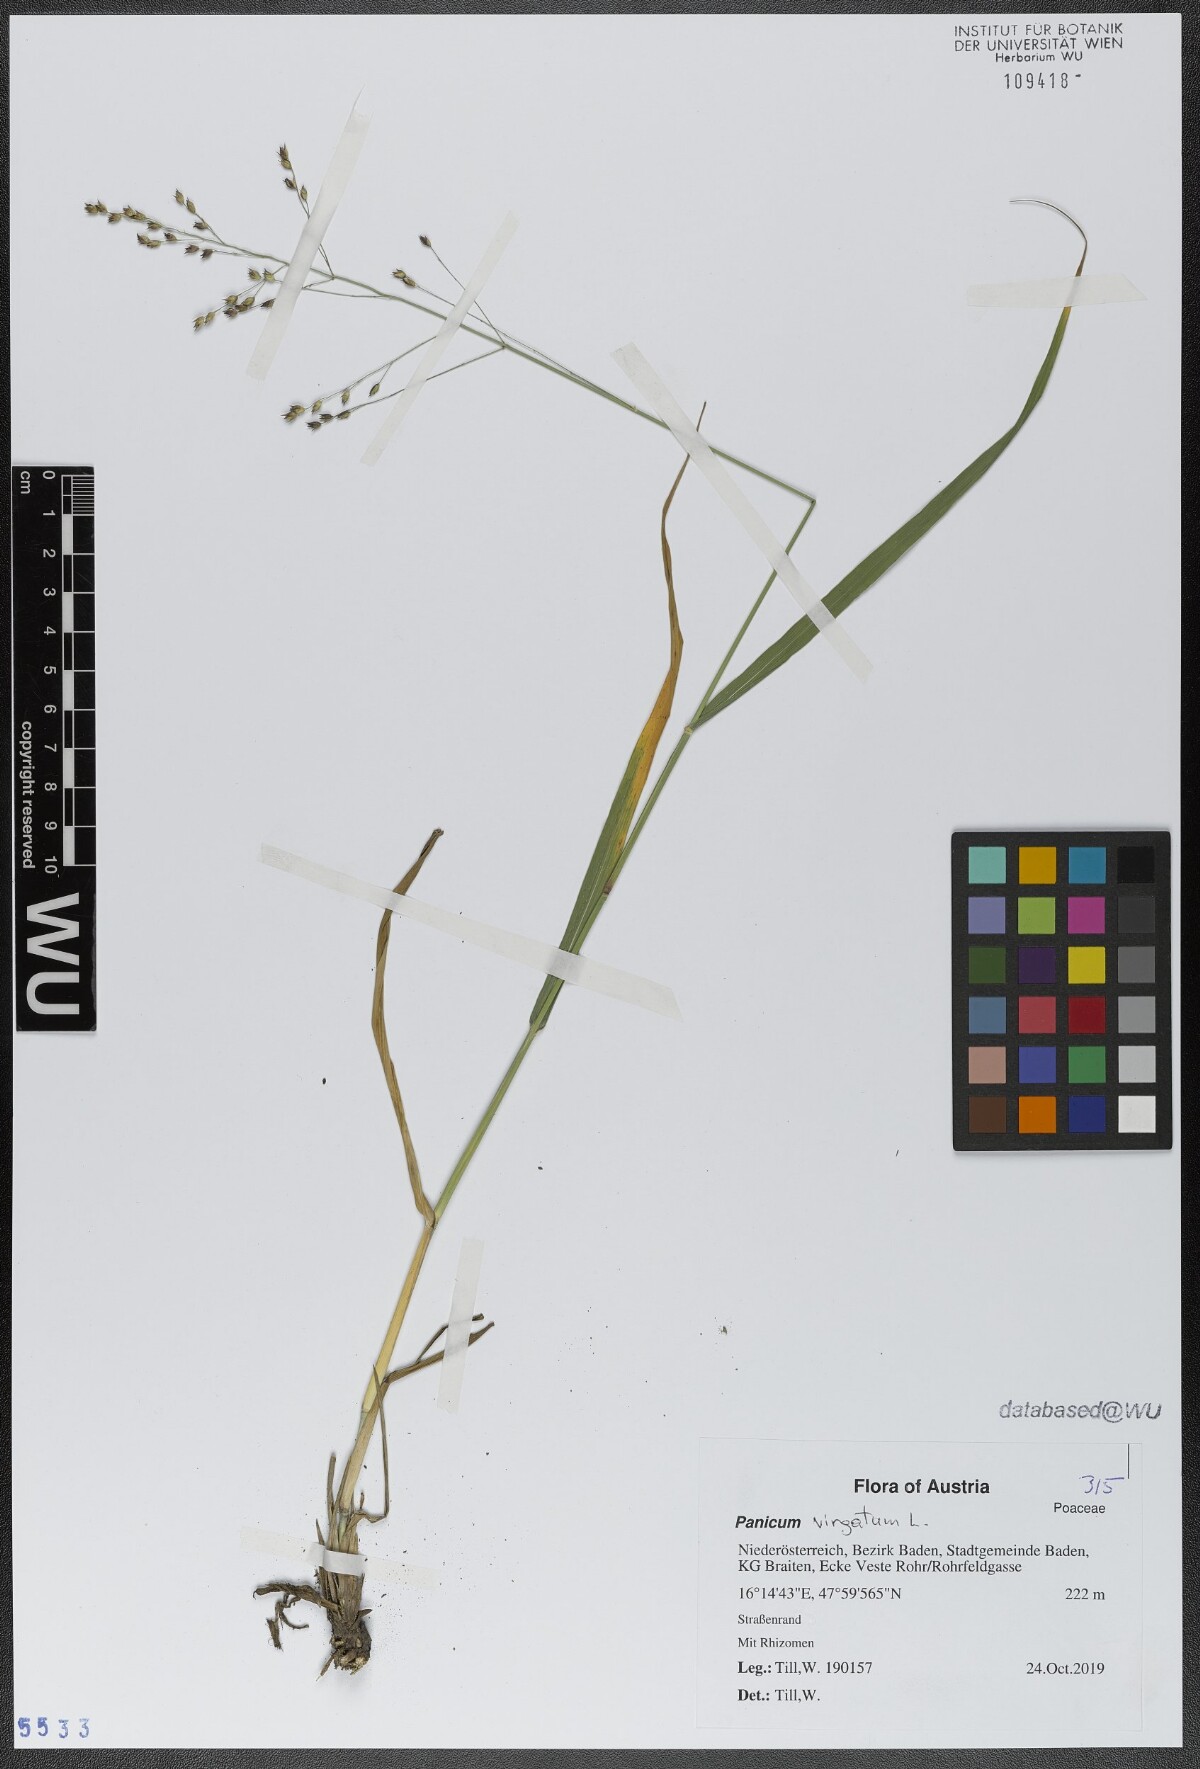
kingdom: Plantae
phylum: Tracheophyta
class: Liliopsida
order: Poales
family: Poaceae
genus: Panicum
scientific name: Panicum virgatum
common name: Switchgrass
